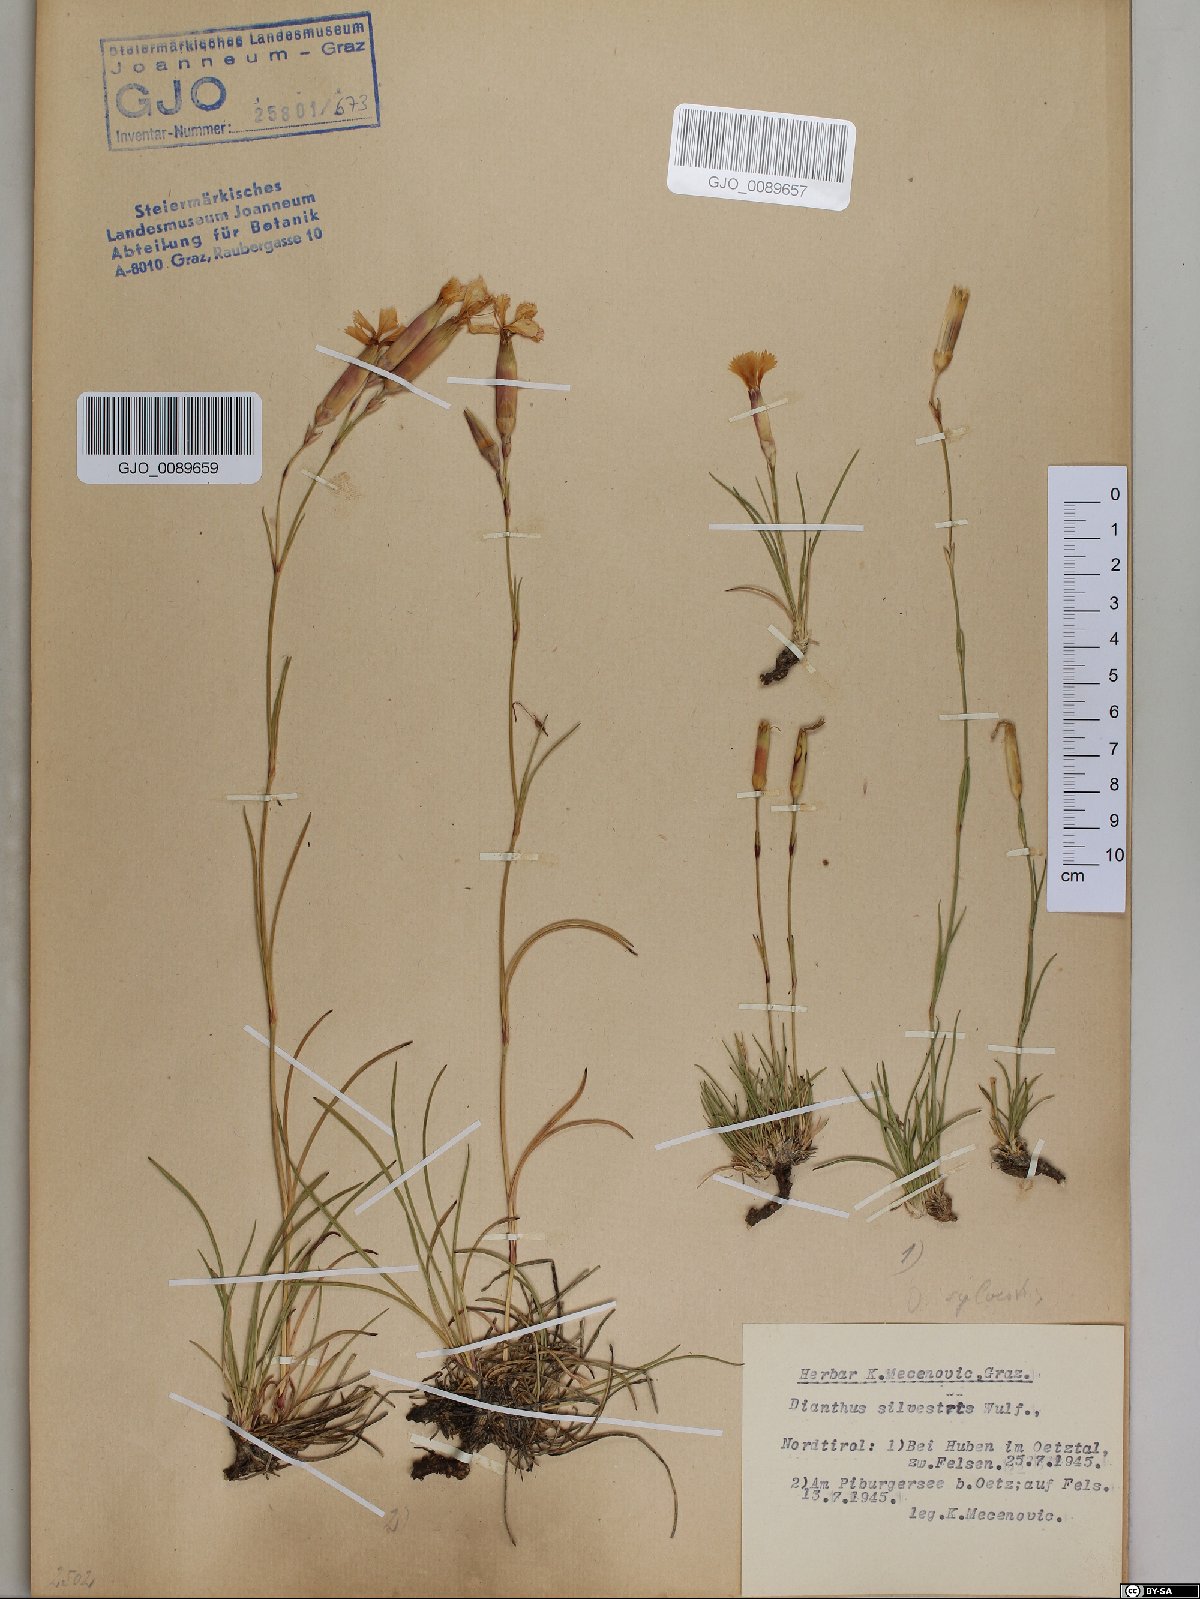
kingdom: Plantae
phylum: Tracheophyta
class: Magnoliopsida
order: Caryophyllales
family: Caryophyllaceae
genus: Dianthus
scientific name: Dianthus sylvestris
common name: Wood pink
